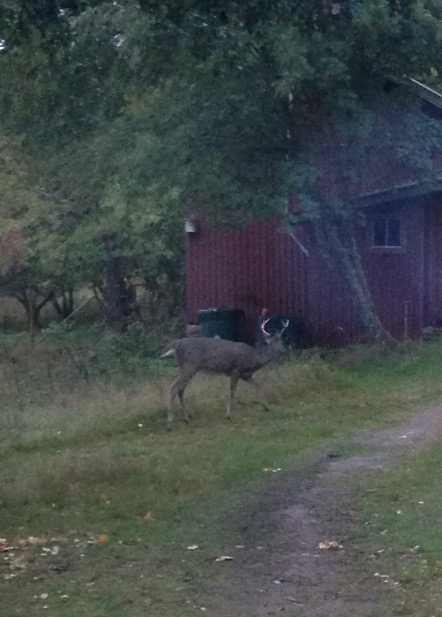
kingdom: Animalia
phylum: Chordata
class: Mammalia
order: Artiodactyla
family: Cervidae
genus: Odocoileus
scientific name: Odocoileus virginianus
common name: White-tailed deer
